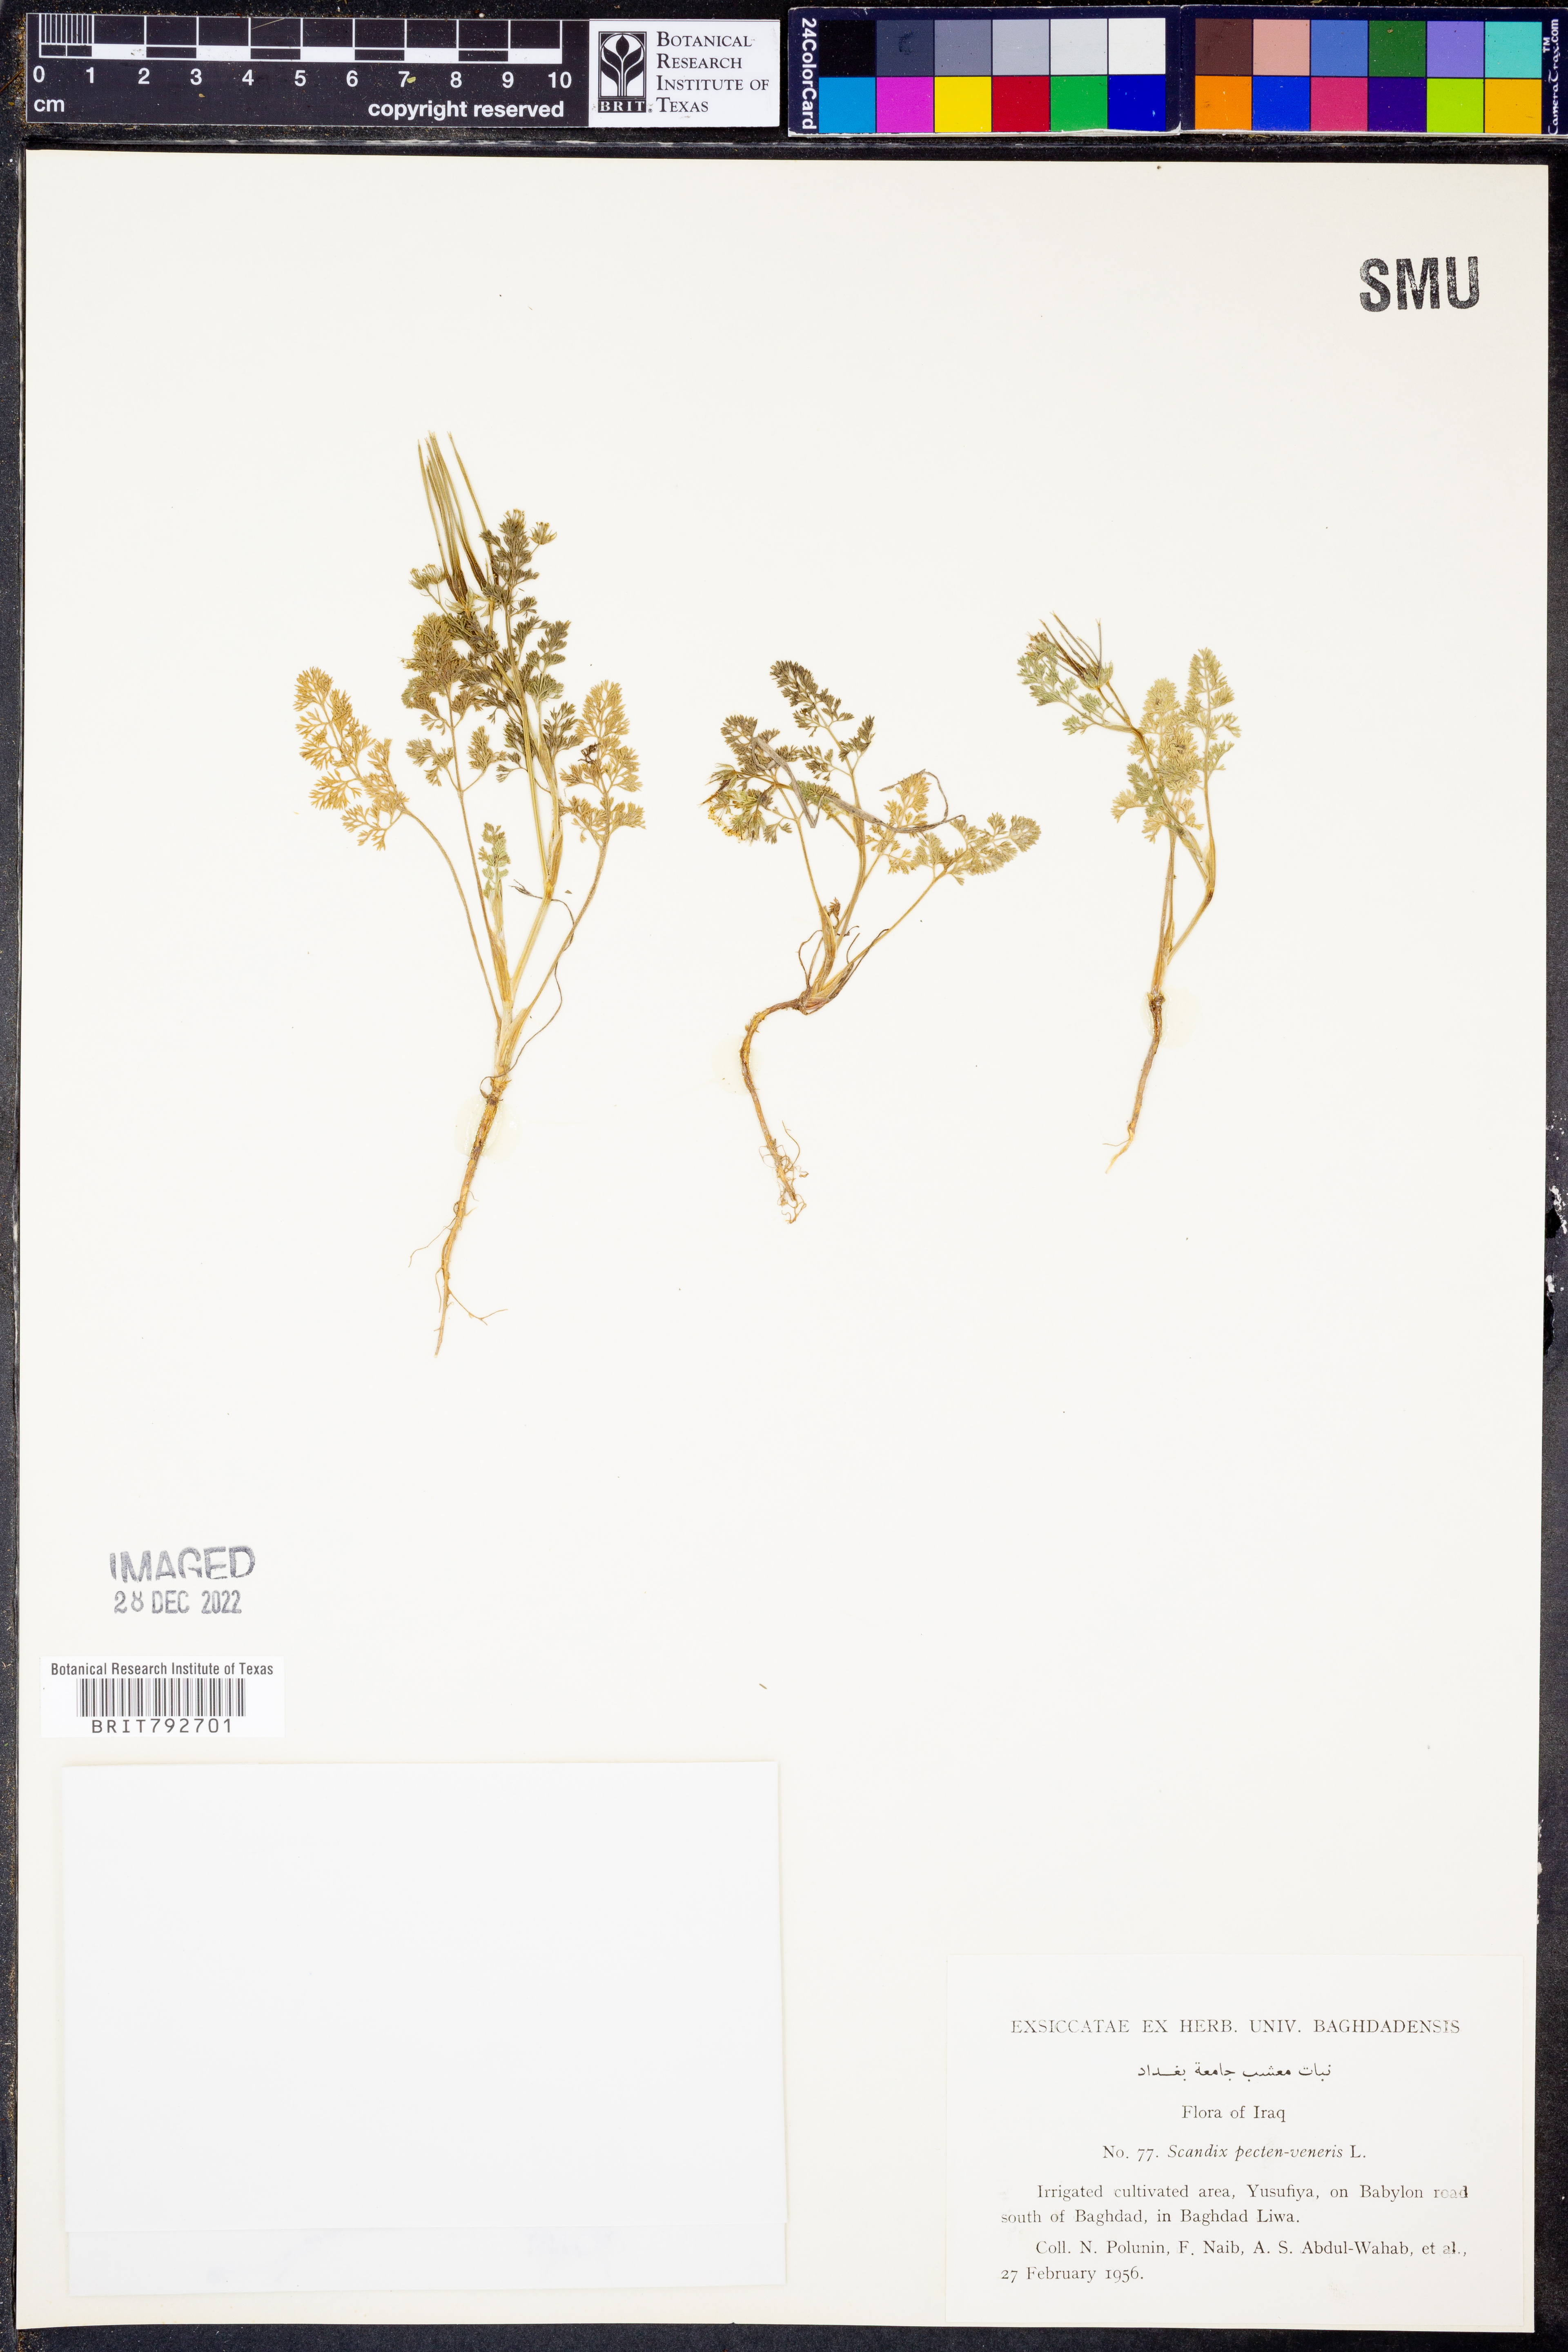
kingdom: Plantae
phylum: Tracheophyta
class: Magnoliopsida
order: Apiales
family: Apiaceae
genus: Scandix
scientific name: Scandix pecten-veneris
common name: Shepherd's-needle
